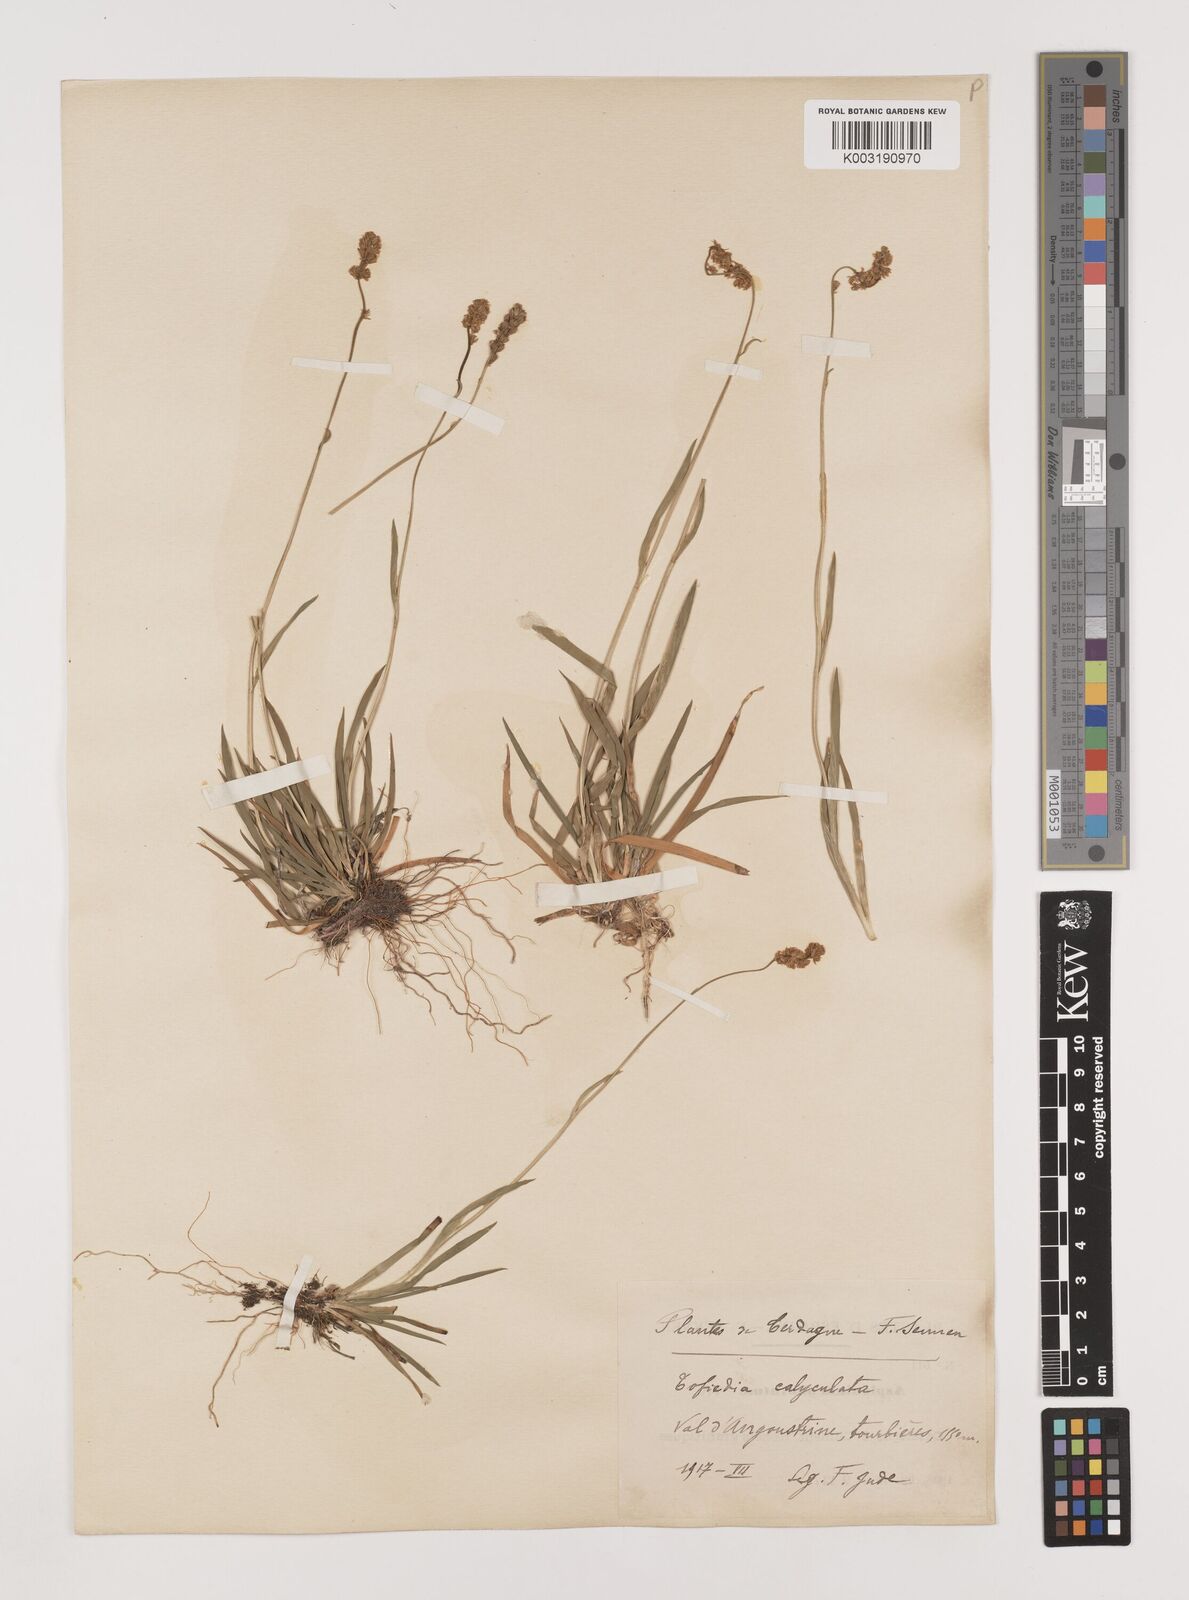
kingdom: Plantae
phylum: Tracheophyta
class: Liliopsida
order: Alismatales
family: Tofieldiaceae
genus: Tofieldia
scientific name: Tofieldia calyculata
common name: German-asphodel
